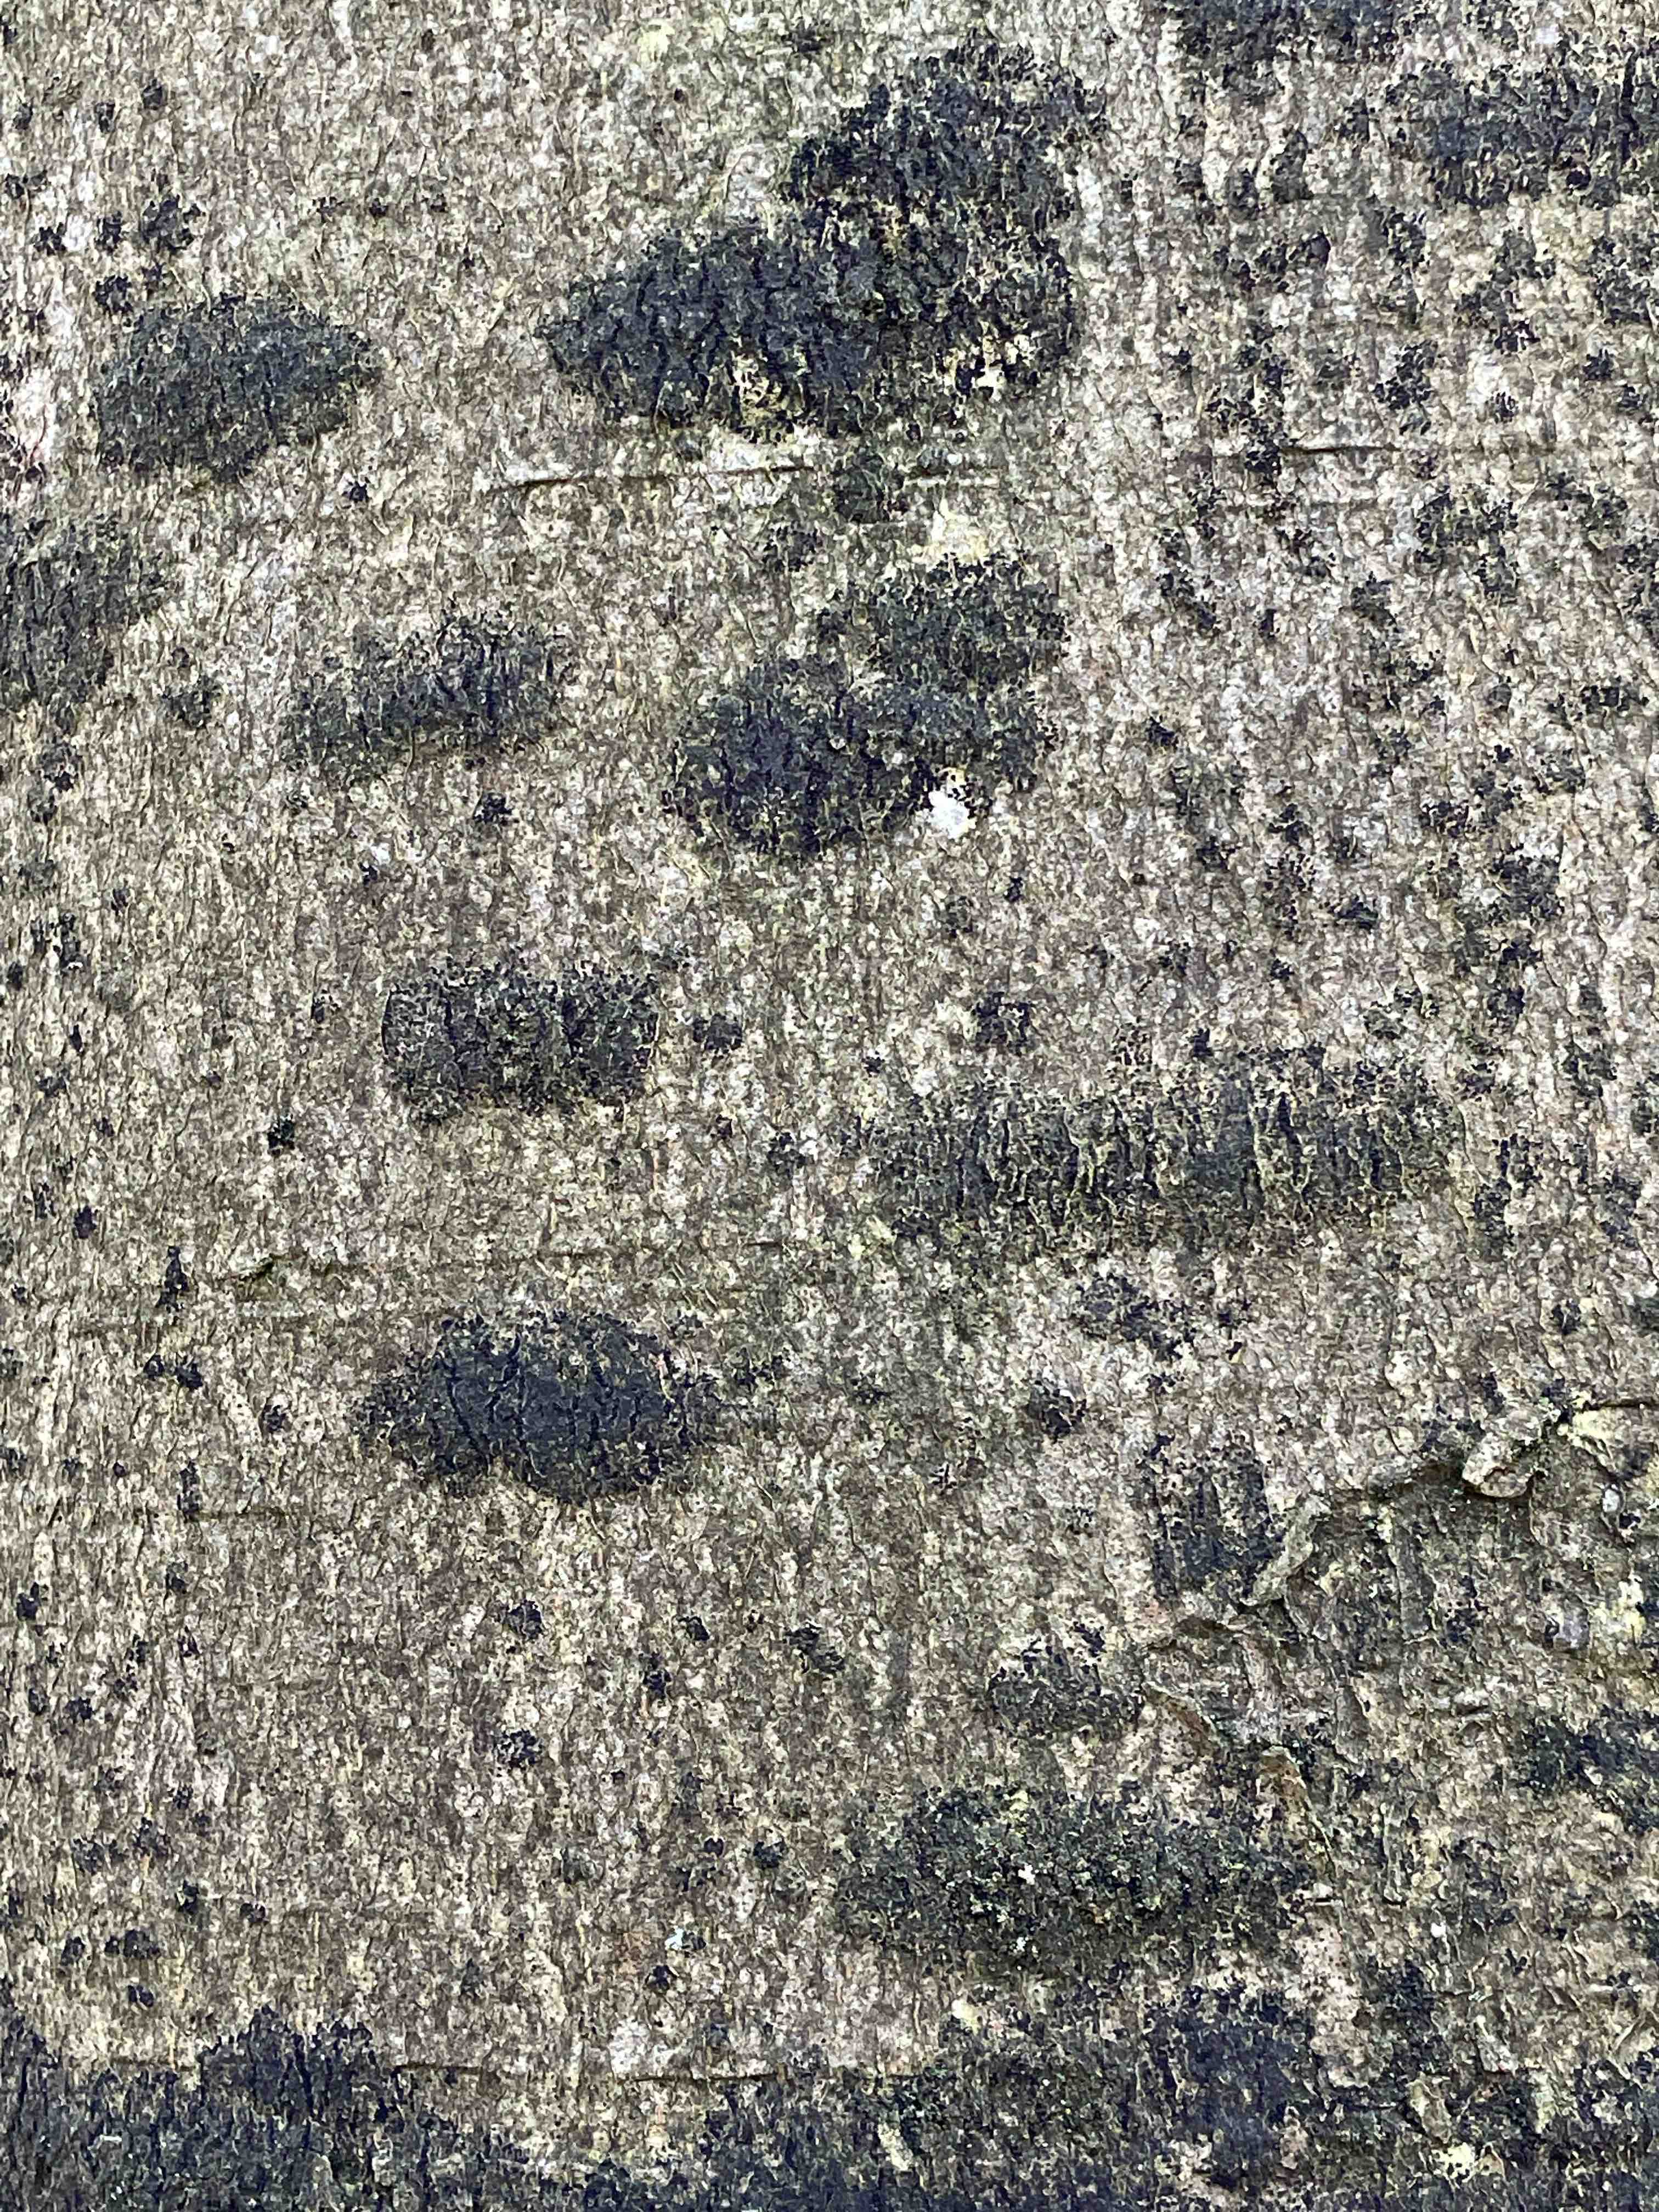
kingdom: Fungi
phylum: Ascomycota
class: Leotiomycetes
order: Rhytismatales
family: Ascodichaenaceae
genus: Ascodichaena
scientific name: Ascodichaena rugosa
